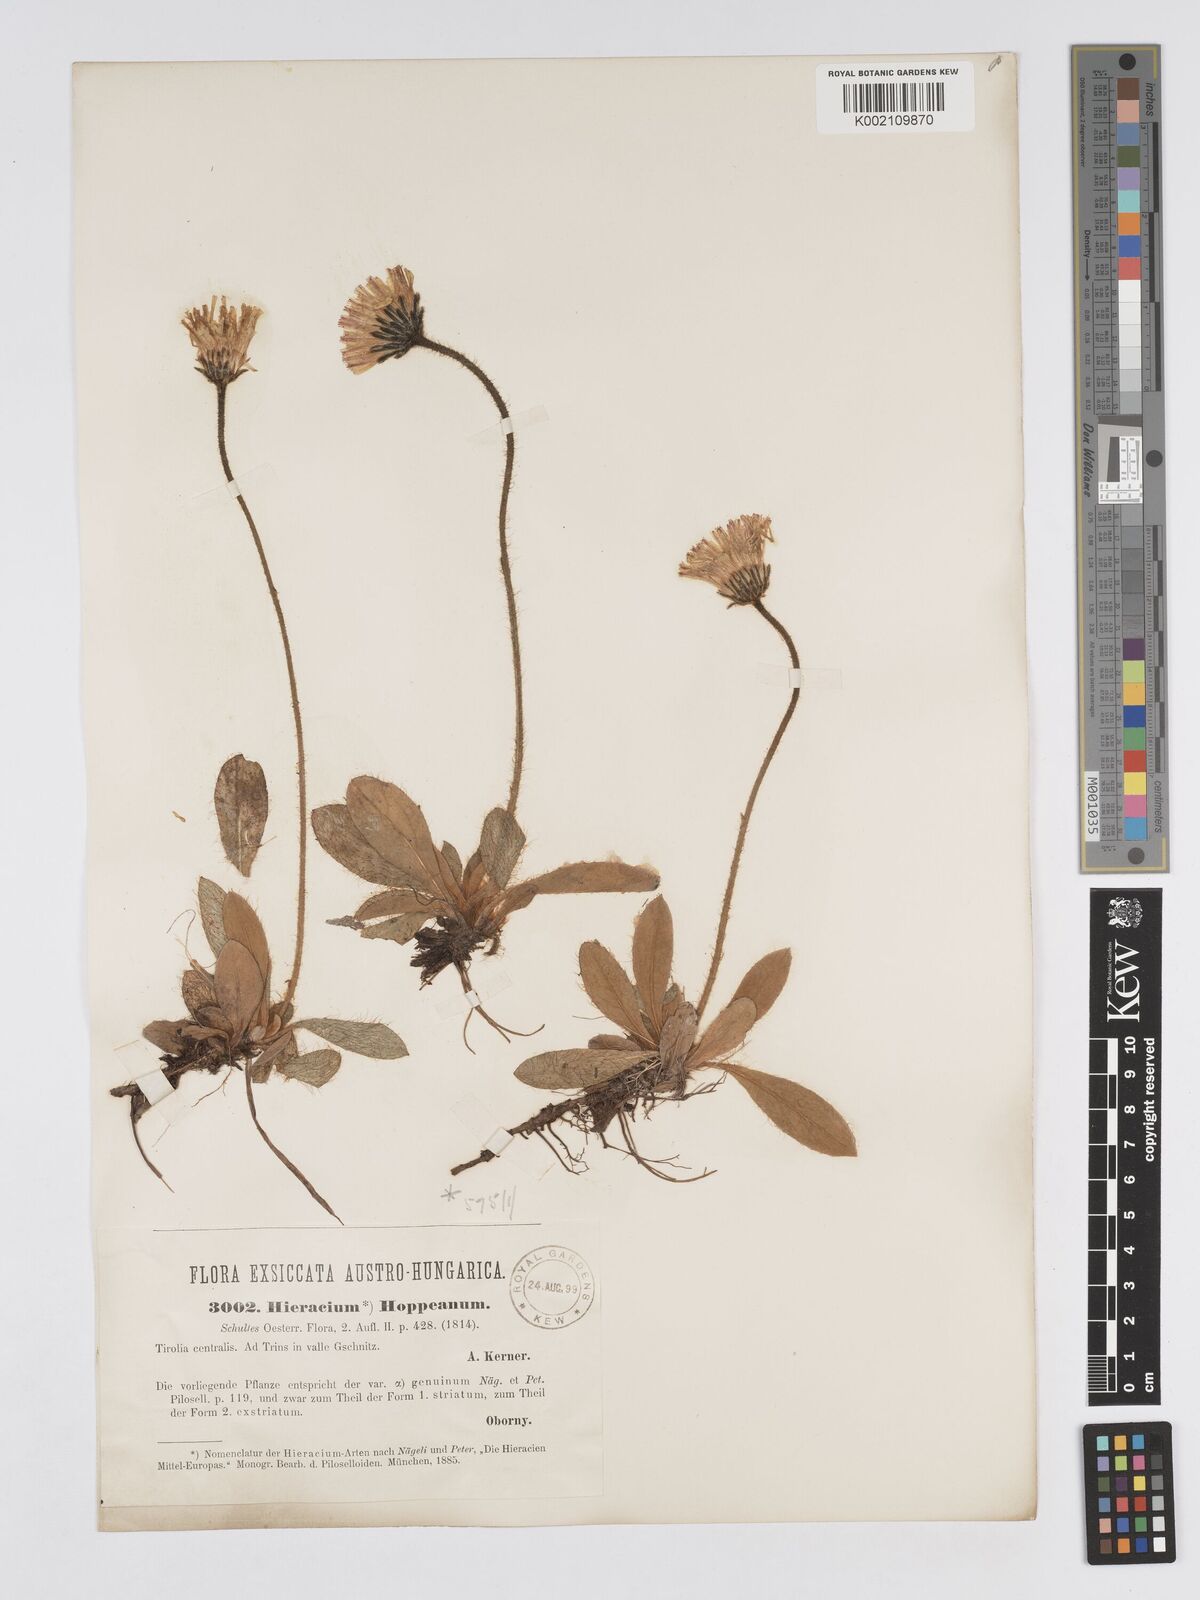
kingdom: Plantae
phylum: Tracheophyta
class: Magnoliopsida
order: Asterales
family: Asteraceae
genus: Pilosella
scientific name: Pilosella hoppeana
